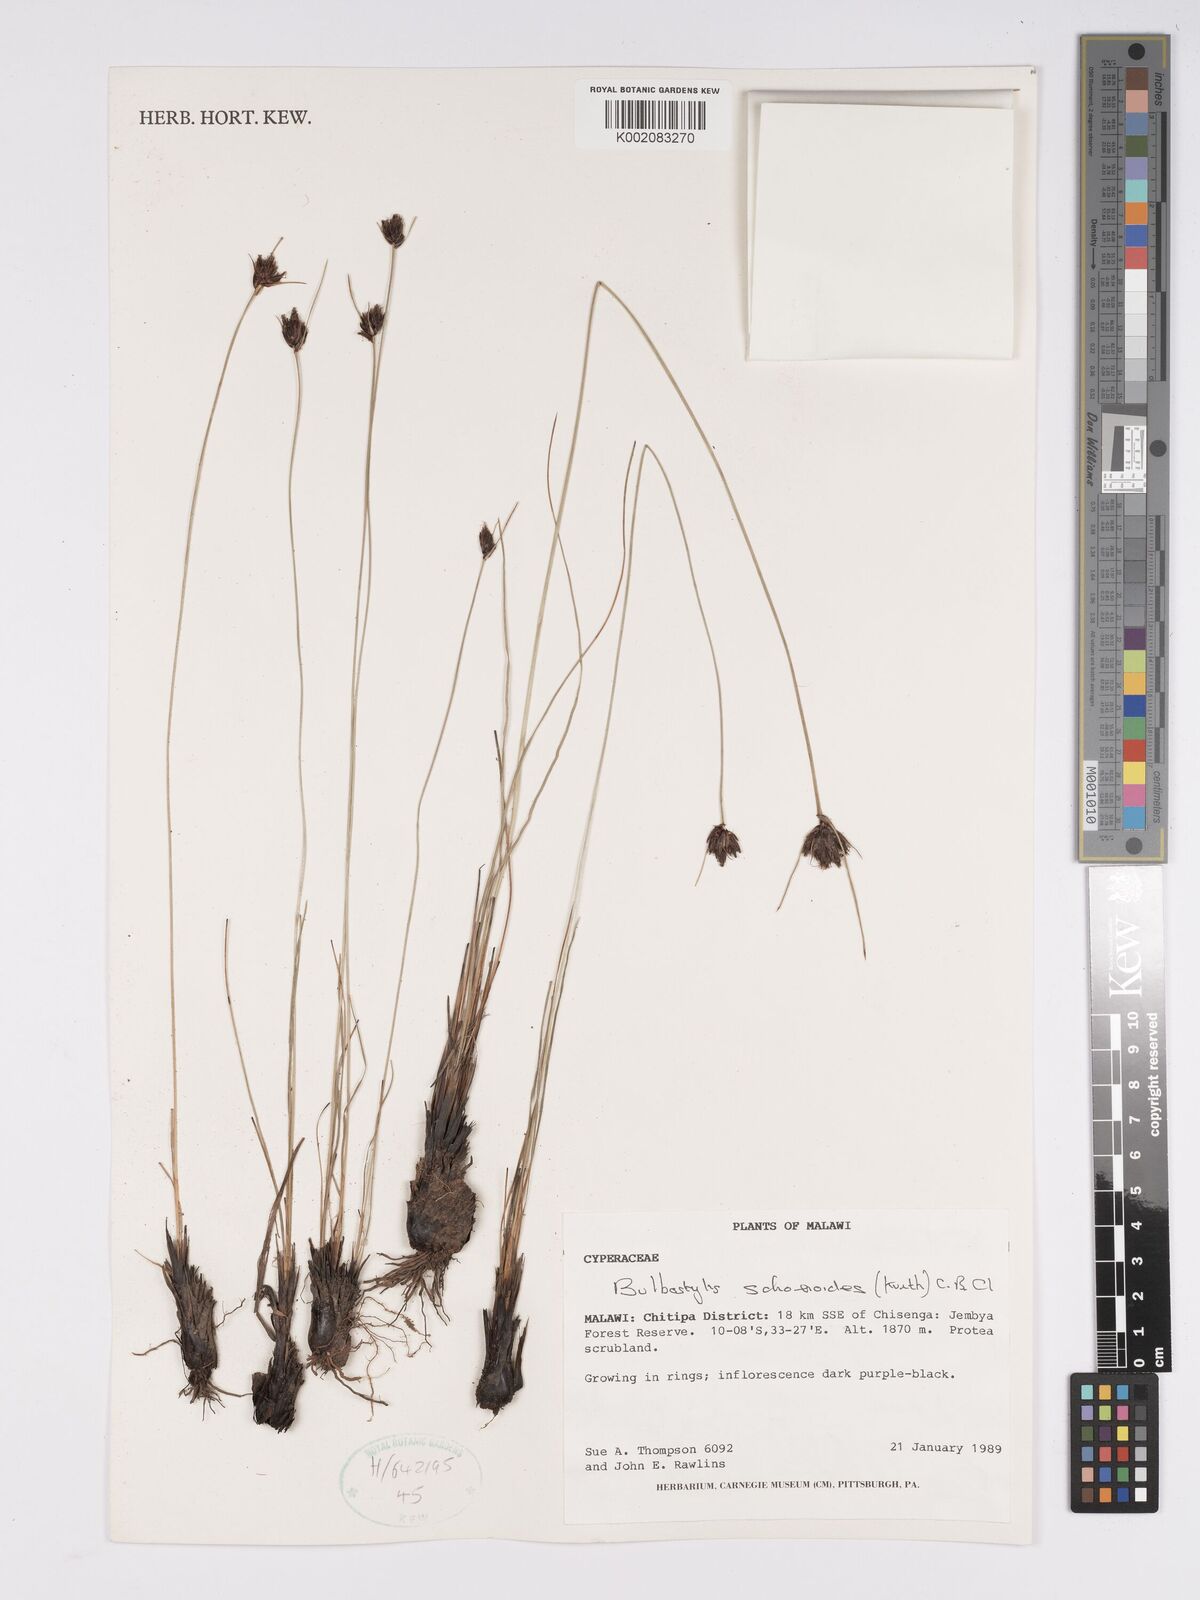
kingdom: Plantae
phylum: Tracheophyta
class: Liliopsida
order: Poales
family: Cyperaceae
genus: Bulbostylis
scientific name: Bulbostylis schoenoides
